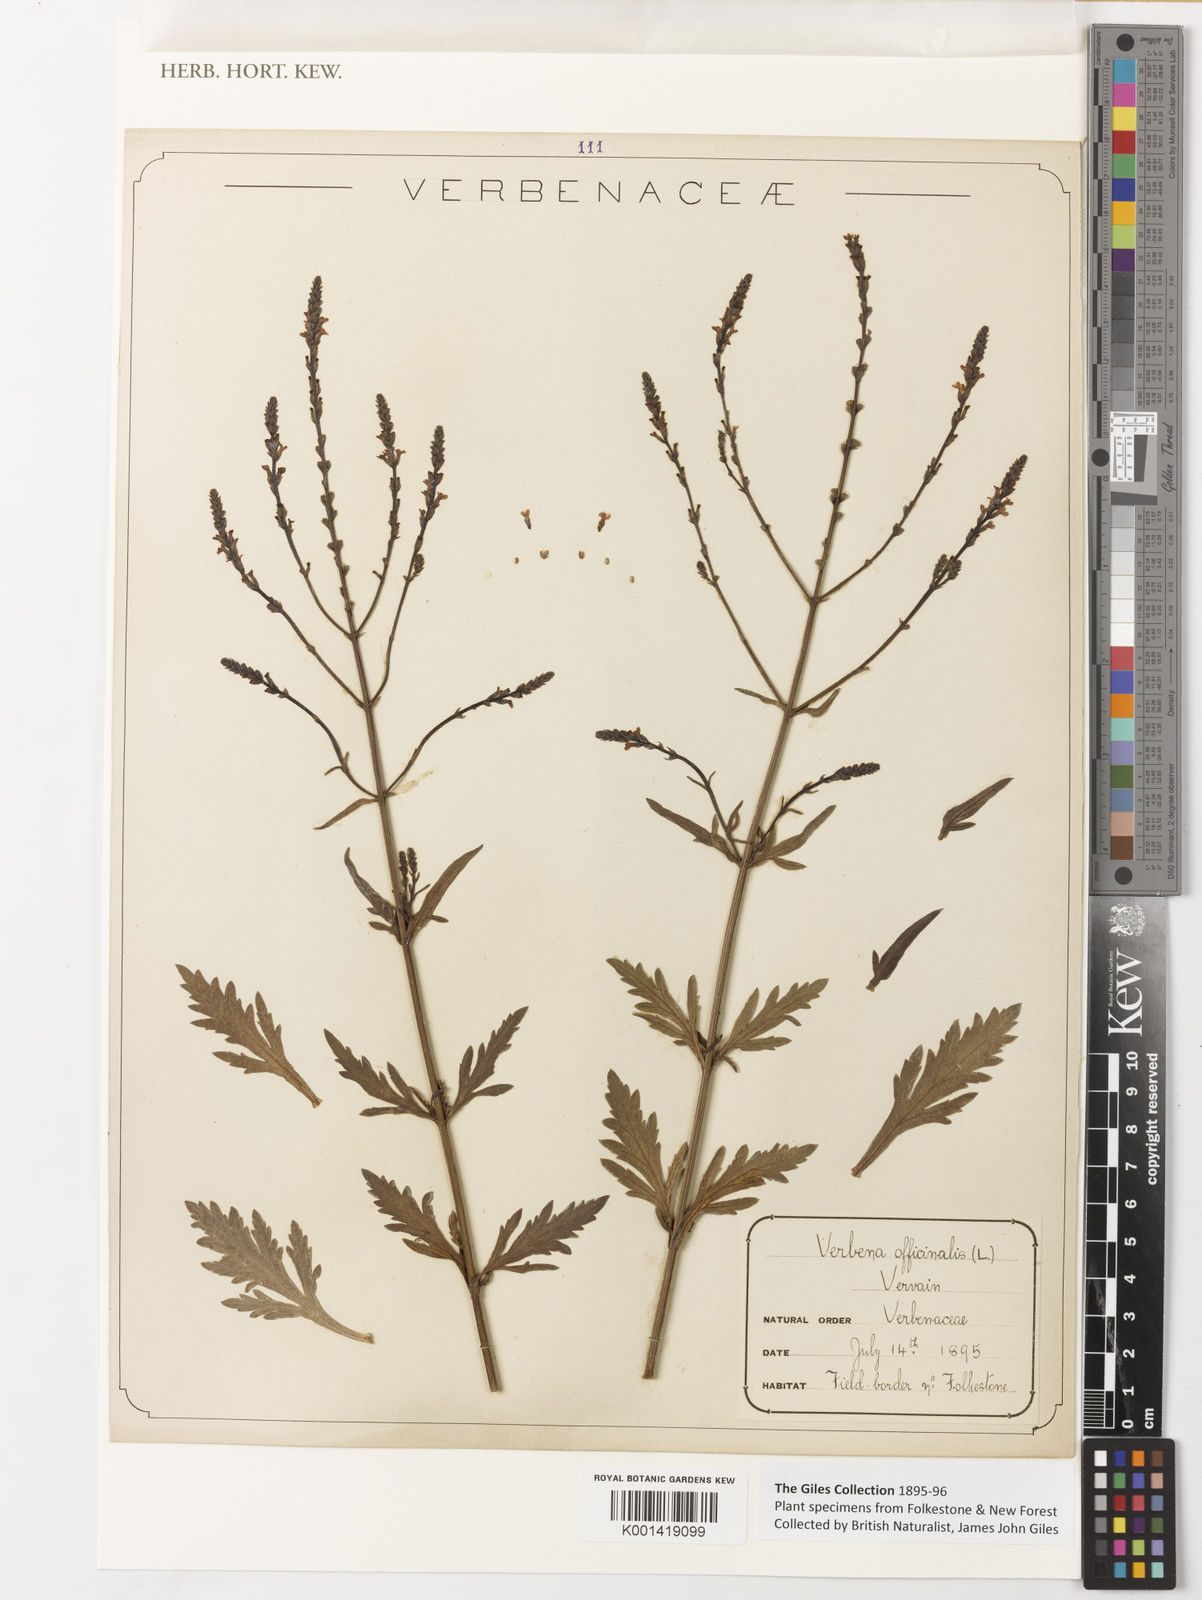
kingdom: Plantae
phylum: Tracheophyta
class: Magnoliopsida
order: Lamiales
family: Verbenaceae
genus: Verbena
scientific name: Verbena officinalis
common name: Vervain
